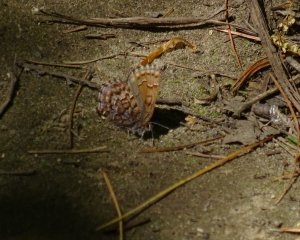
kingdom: Animalia
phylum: Arthropoda
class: Insecta
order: Lepidoptera
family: Lycaenidae
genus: Incisalia
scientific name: Incisalia niphon
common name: Eastern Pine Elfin
